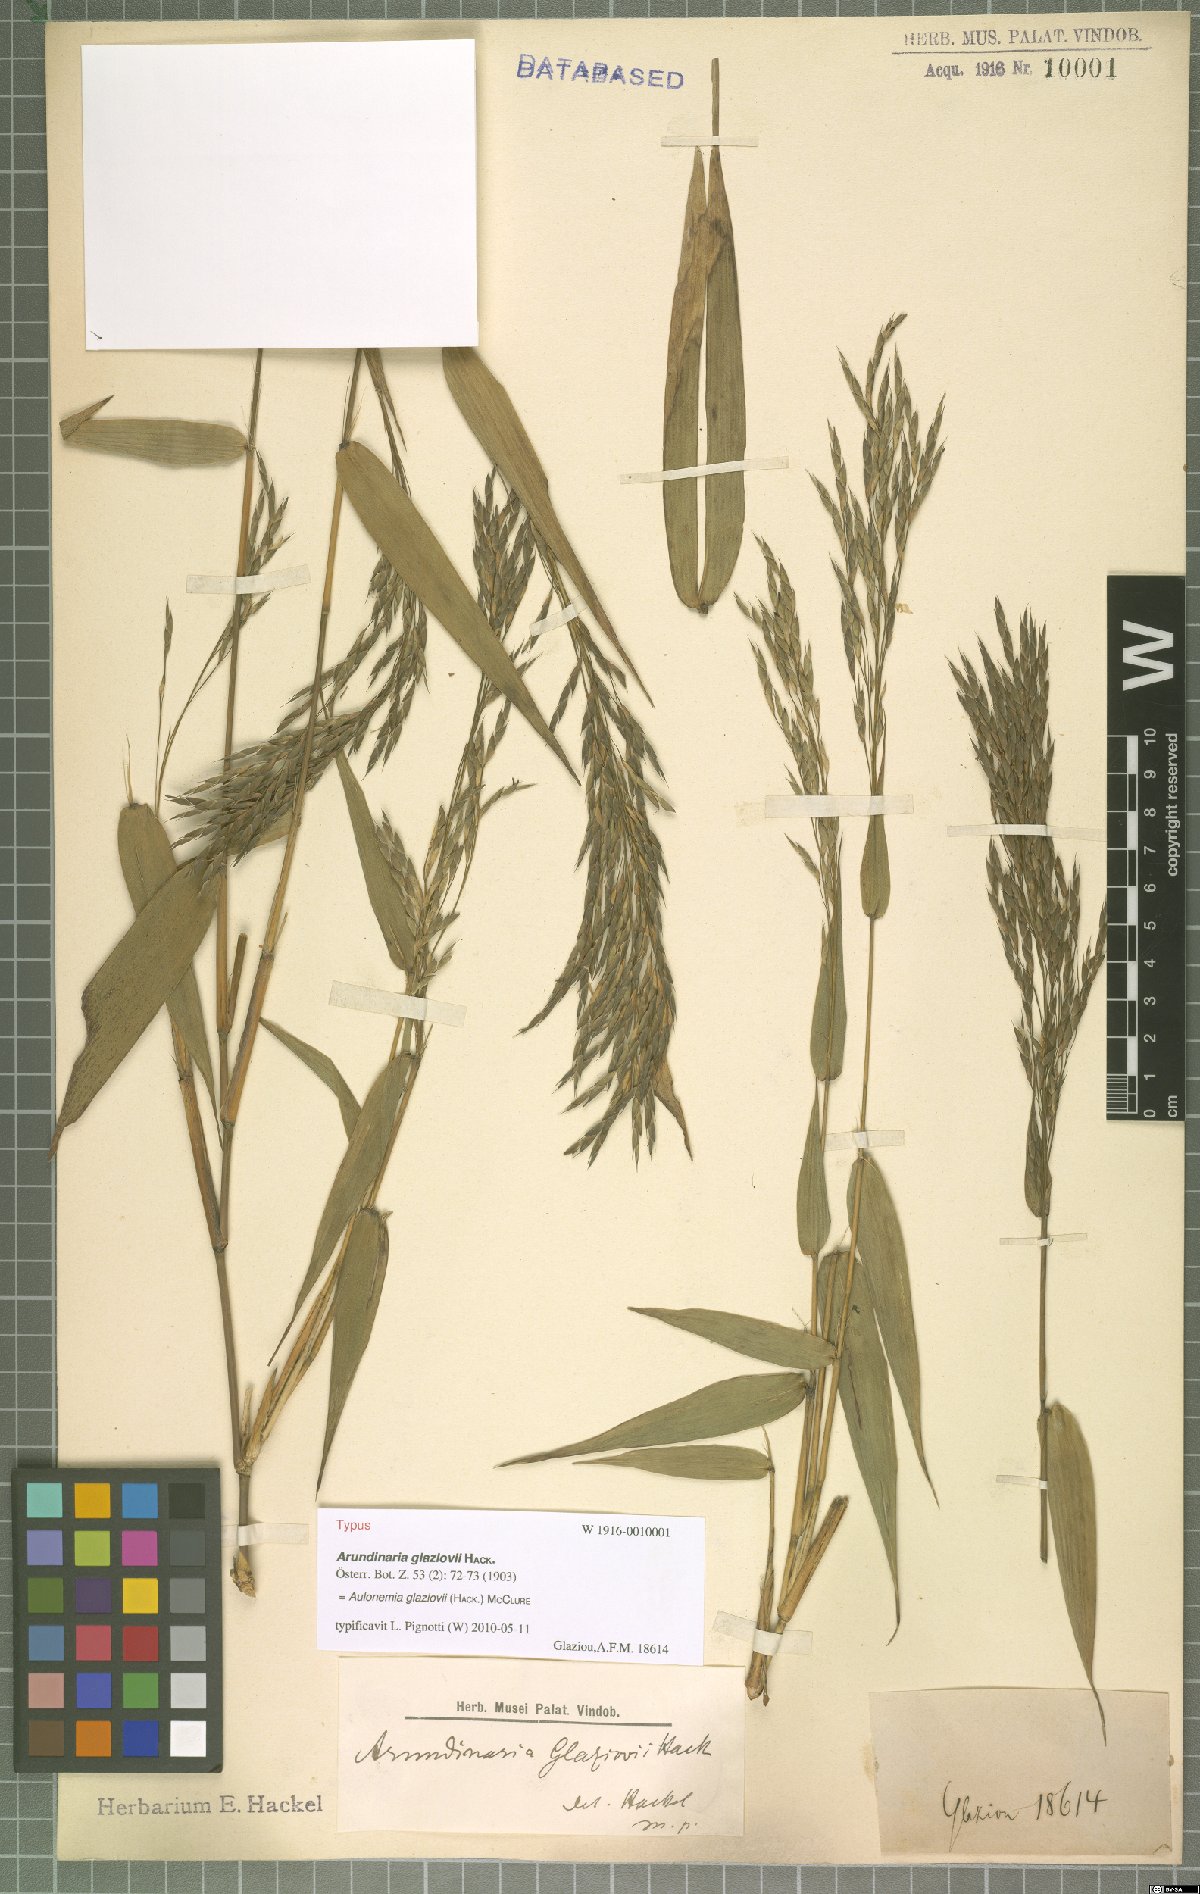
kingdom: Plantae
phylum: Tracheophyta
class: Liliopsida
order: Poales
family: Poaceae
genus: Aulonemia
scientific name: Aulonemia radiata
